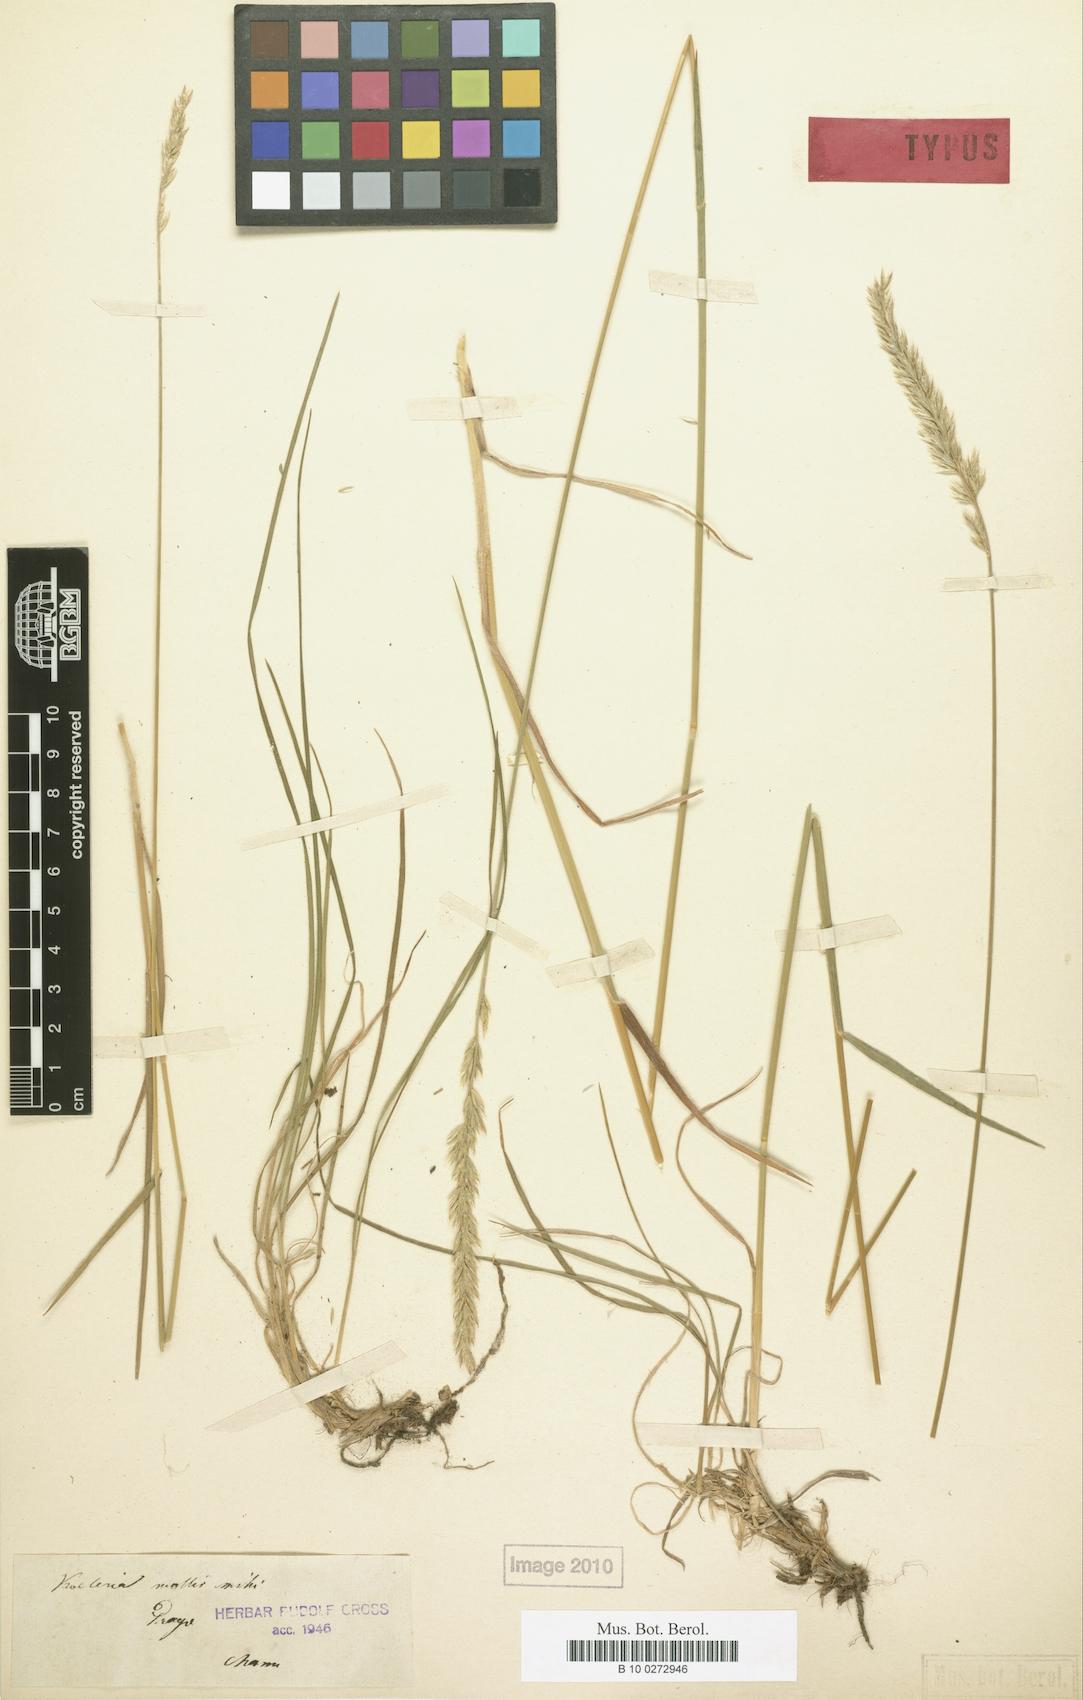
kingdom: Plantae
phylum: Tracheophyta
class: Liliopsida
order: Poales
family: Poaceae
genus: Koeleria
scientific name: Koeleria pyramidata
